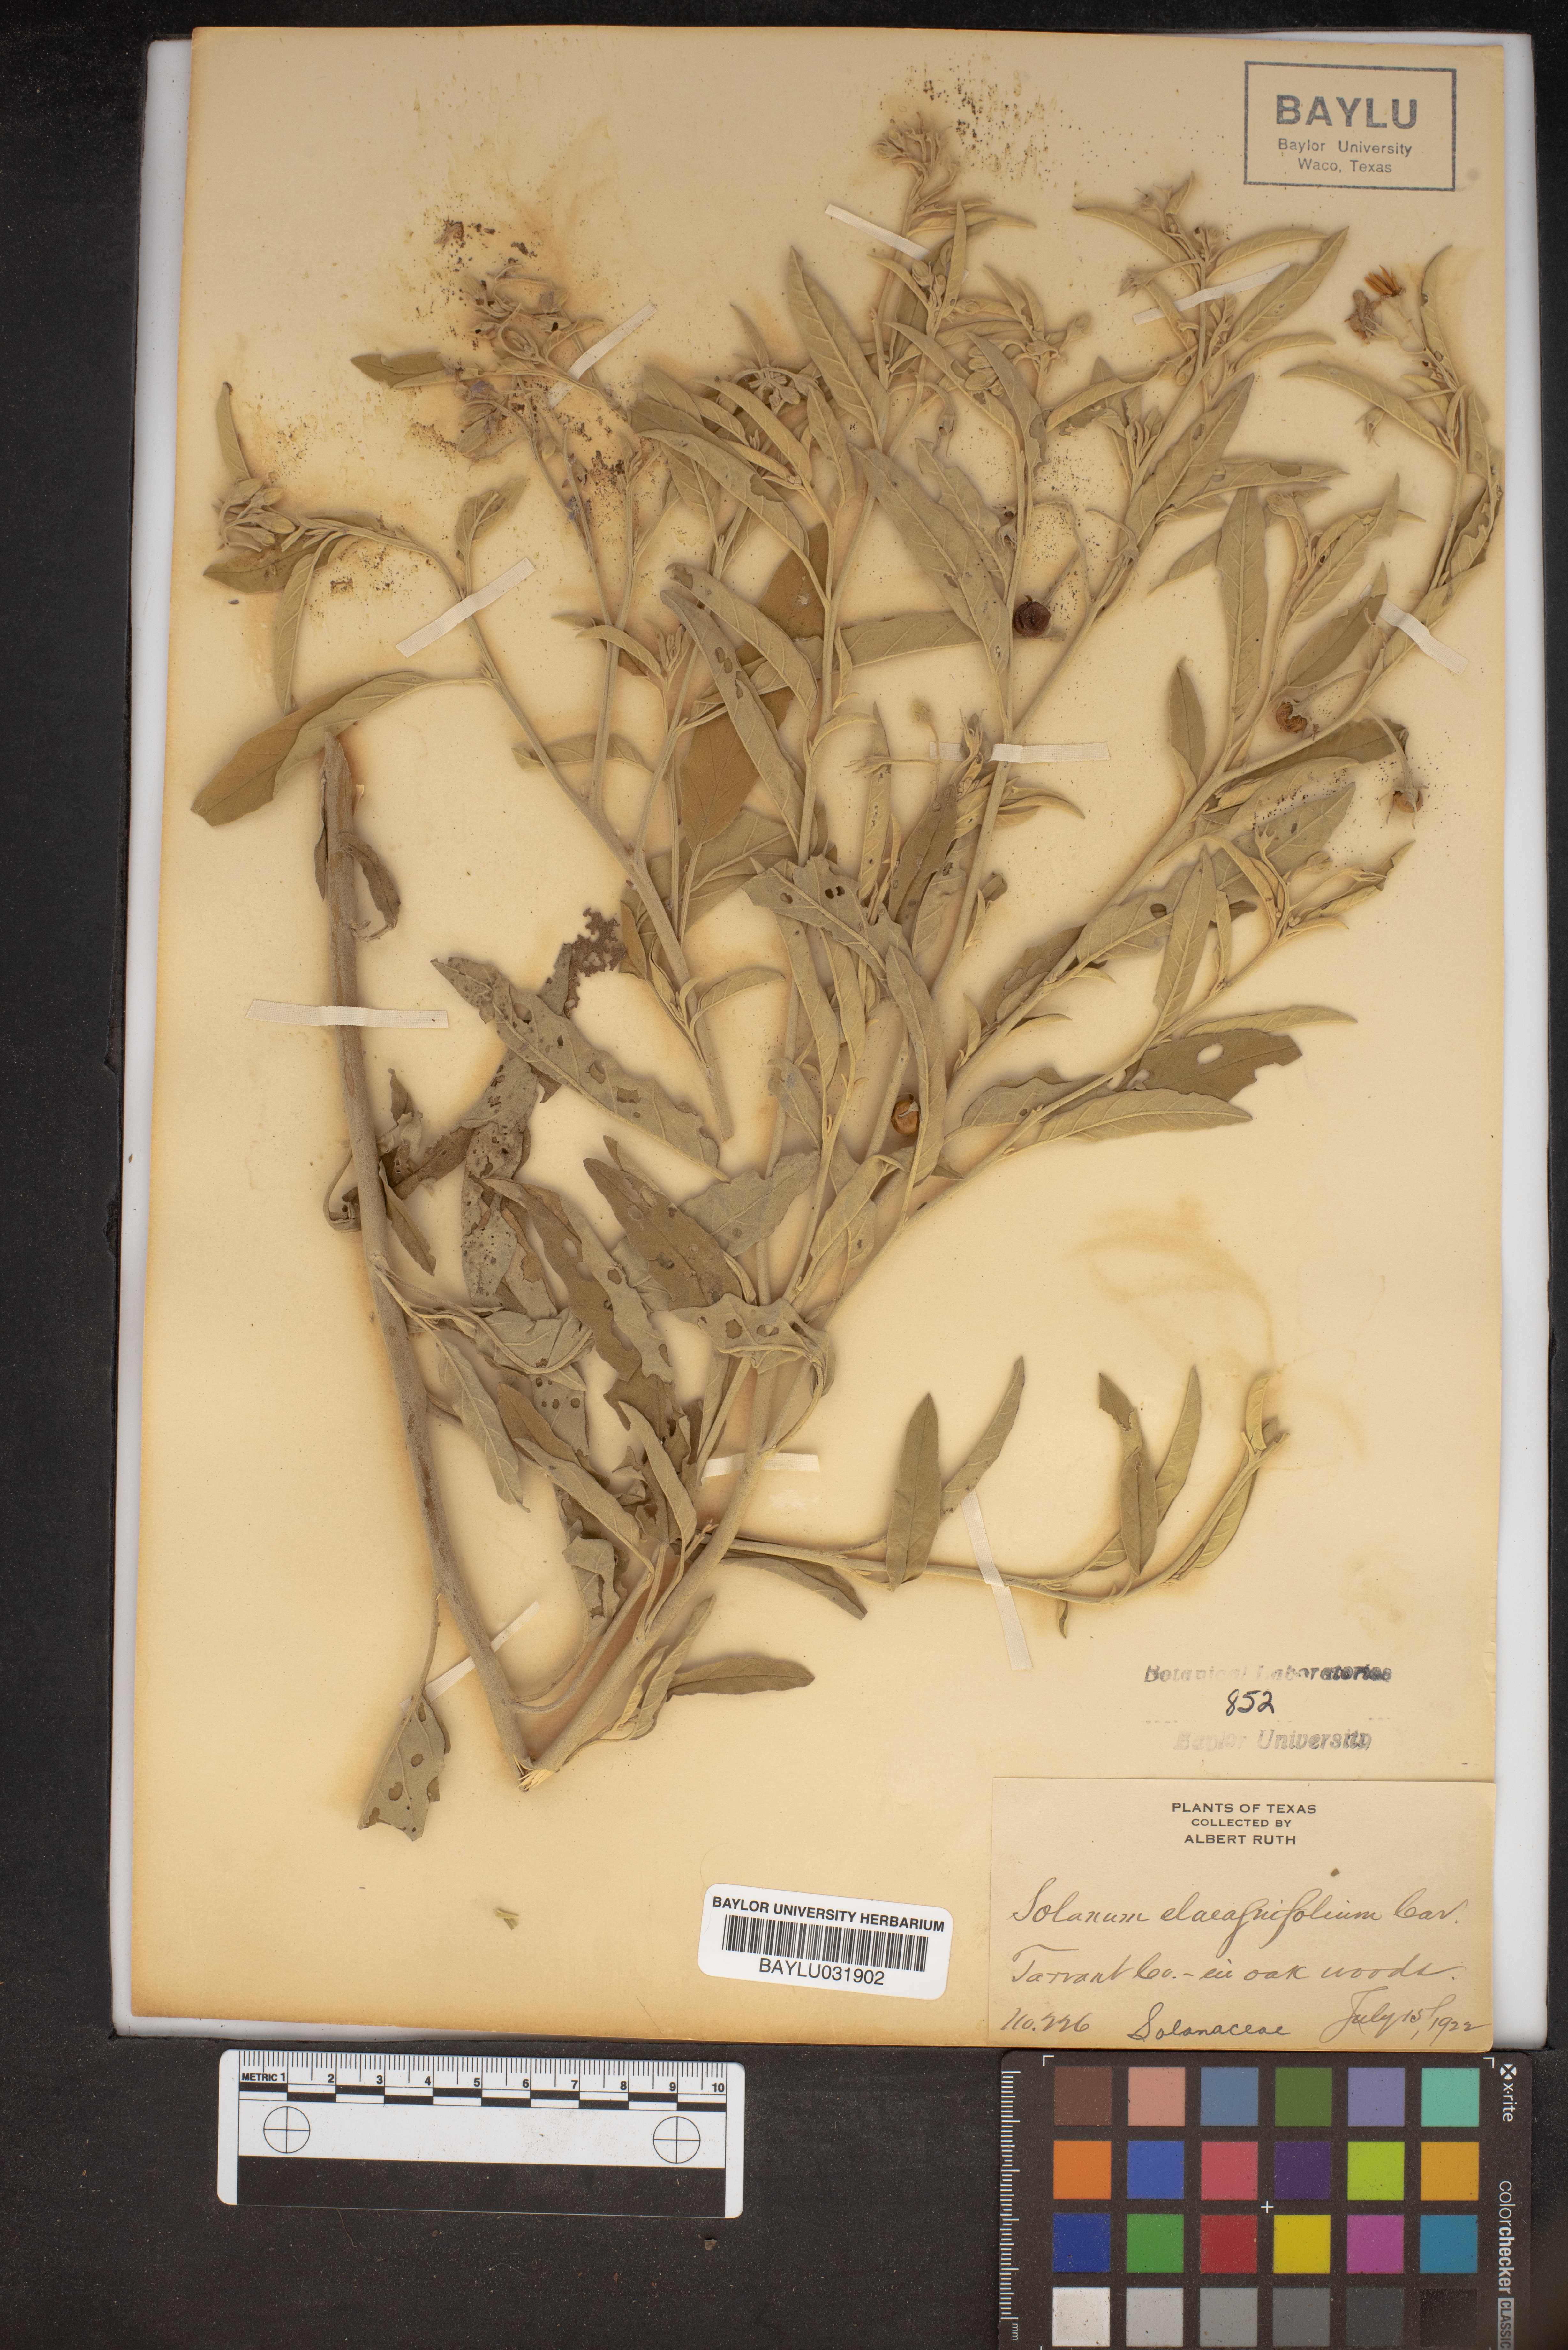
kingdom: Plantae
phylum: Tracheophyta
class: Magnoliopsida
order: Solanales
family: Solanaceae
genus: Solanum
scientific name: Solanum elaeagnifolium
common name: Silverleaf nightshade
